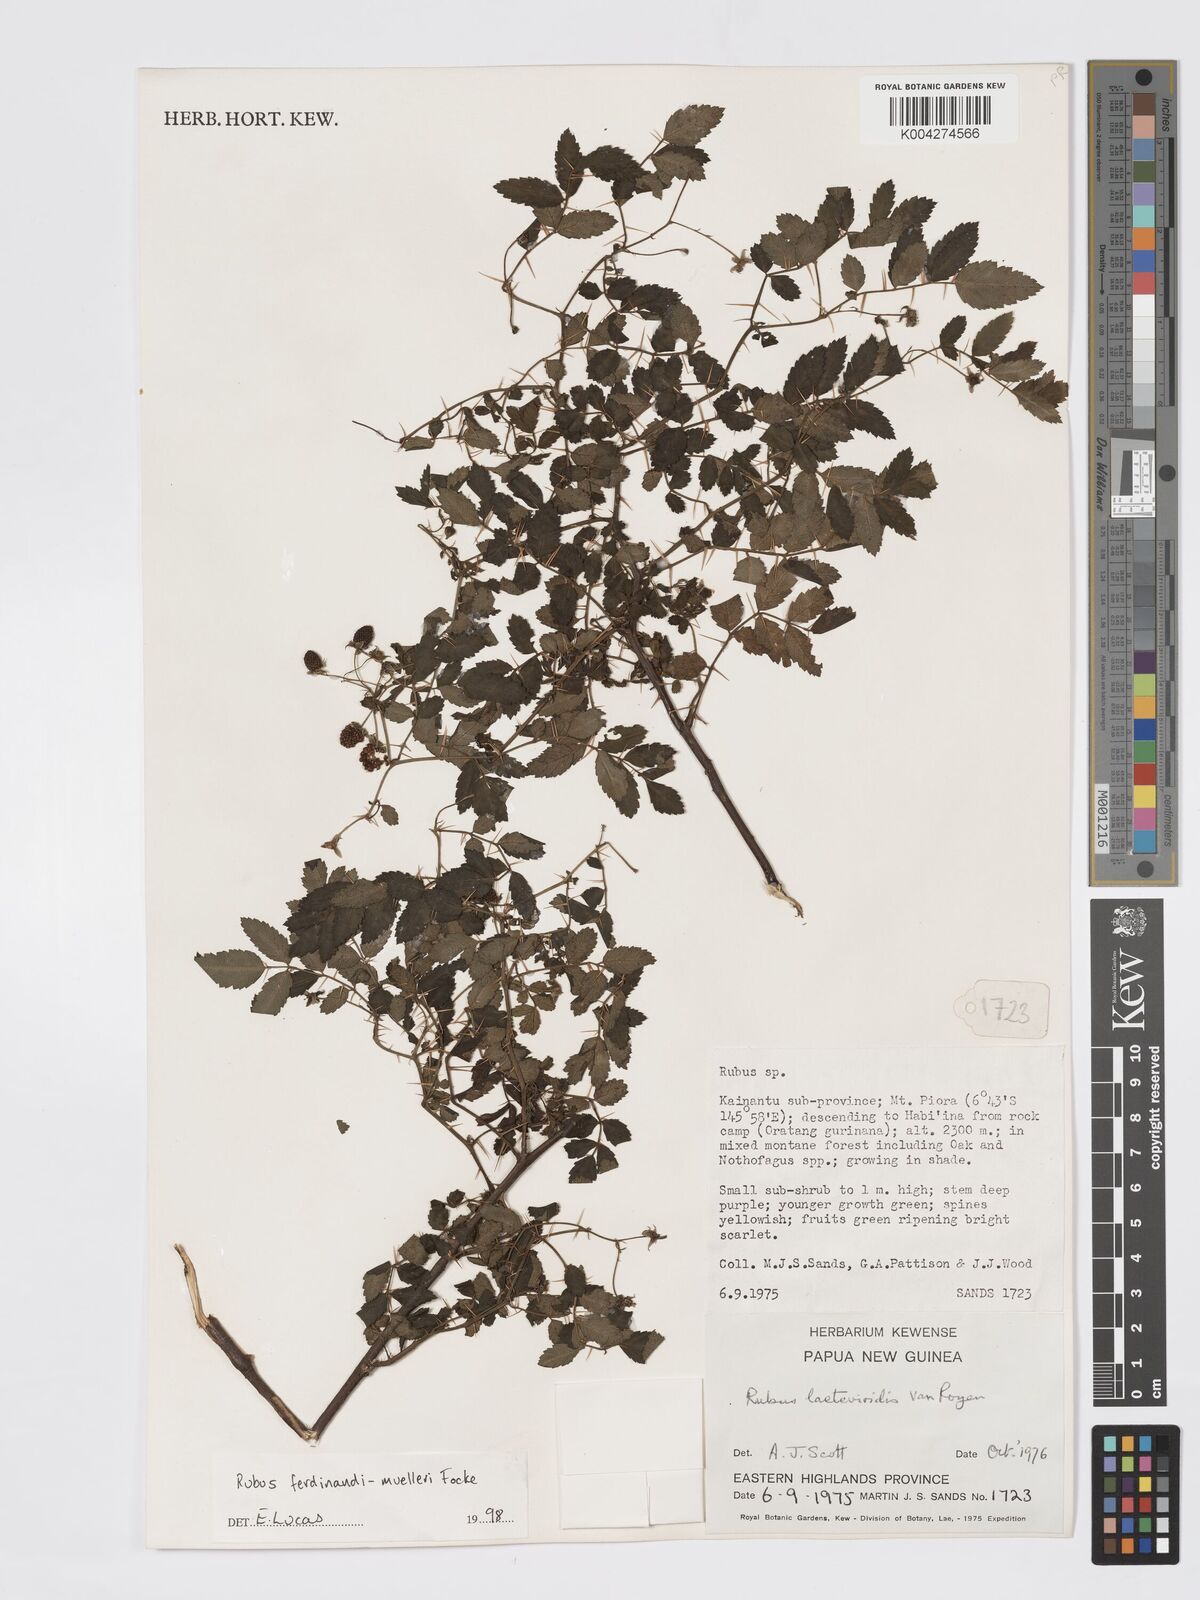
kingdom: Plantae
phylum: Tracheophyta
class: Magnoliopsida
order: Rosales
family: Rosaceae
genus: Rubus
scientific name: Rubus ferdinandimuelleri
